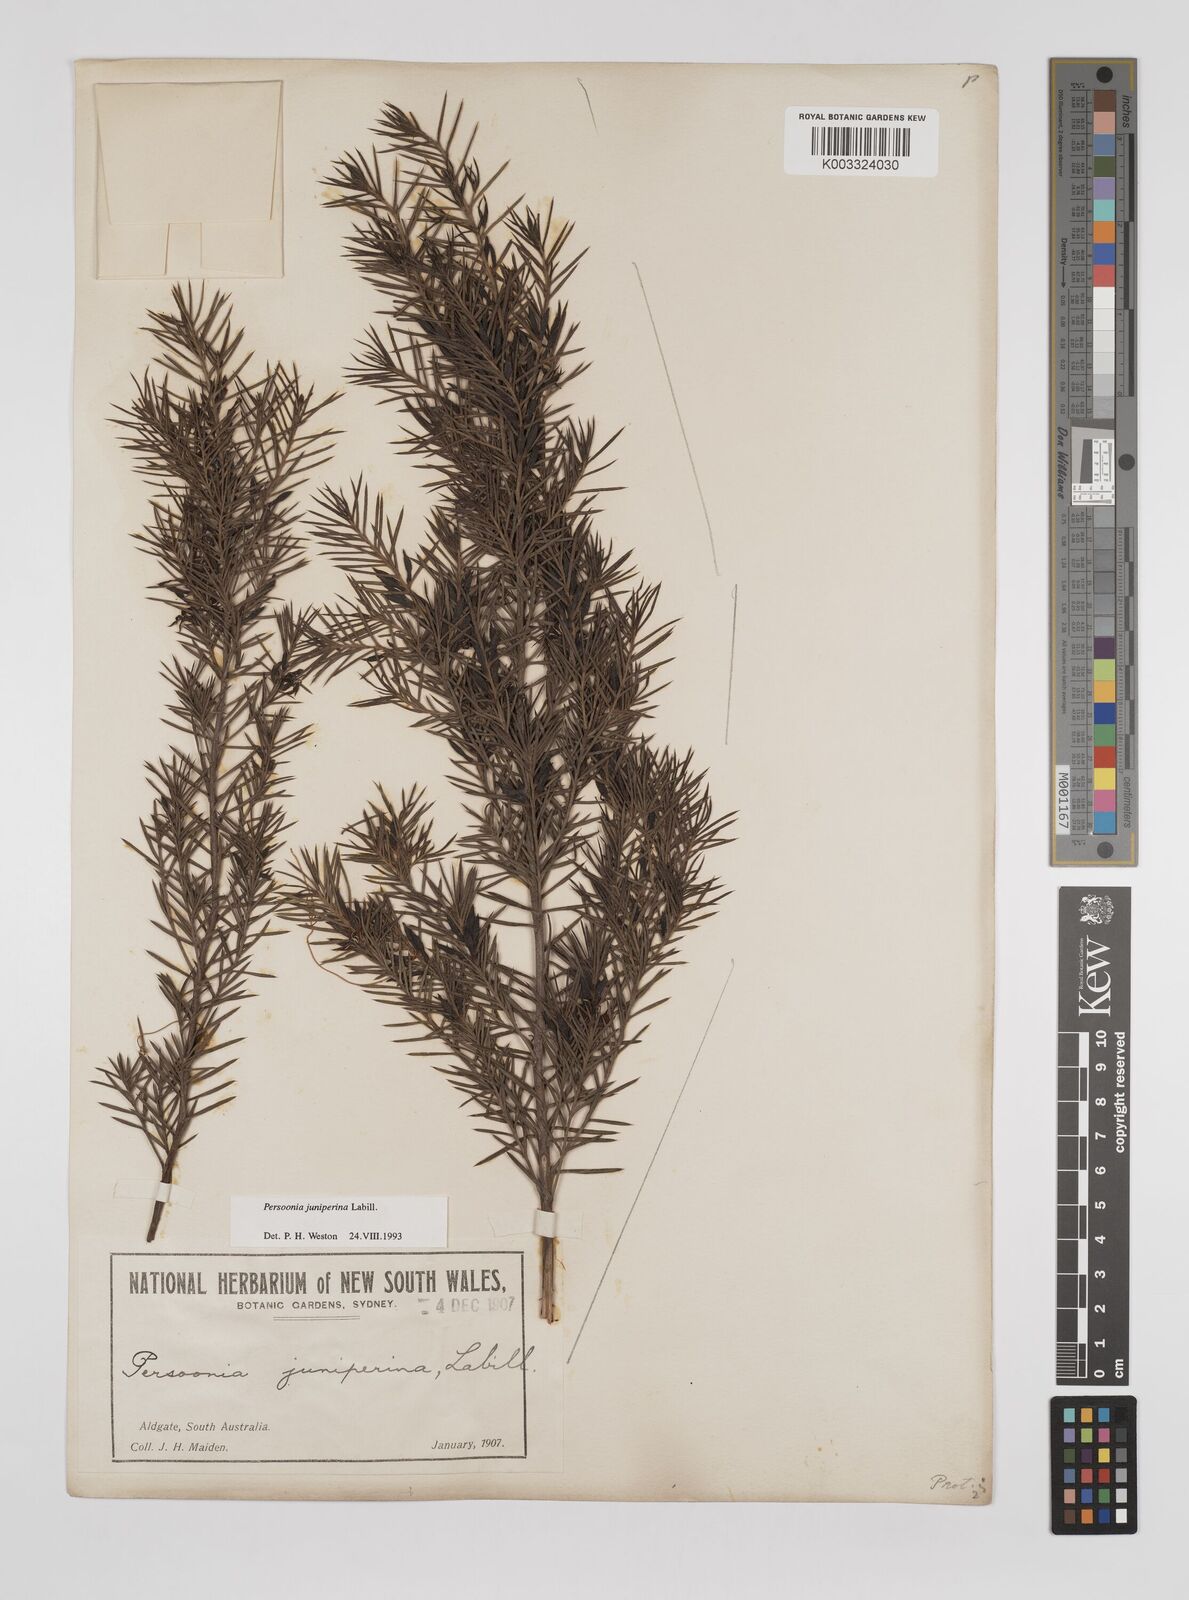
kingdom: Plantae
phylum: Tracheophyta
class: Magnoliopsida
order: Proteales
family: Proteaceae
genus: Persoonia
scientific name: Persoonia juniperina
